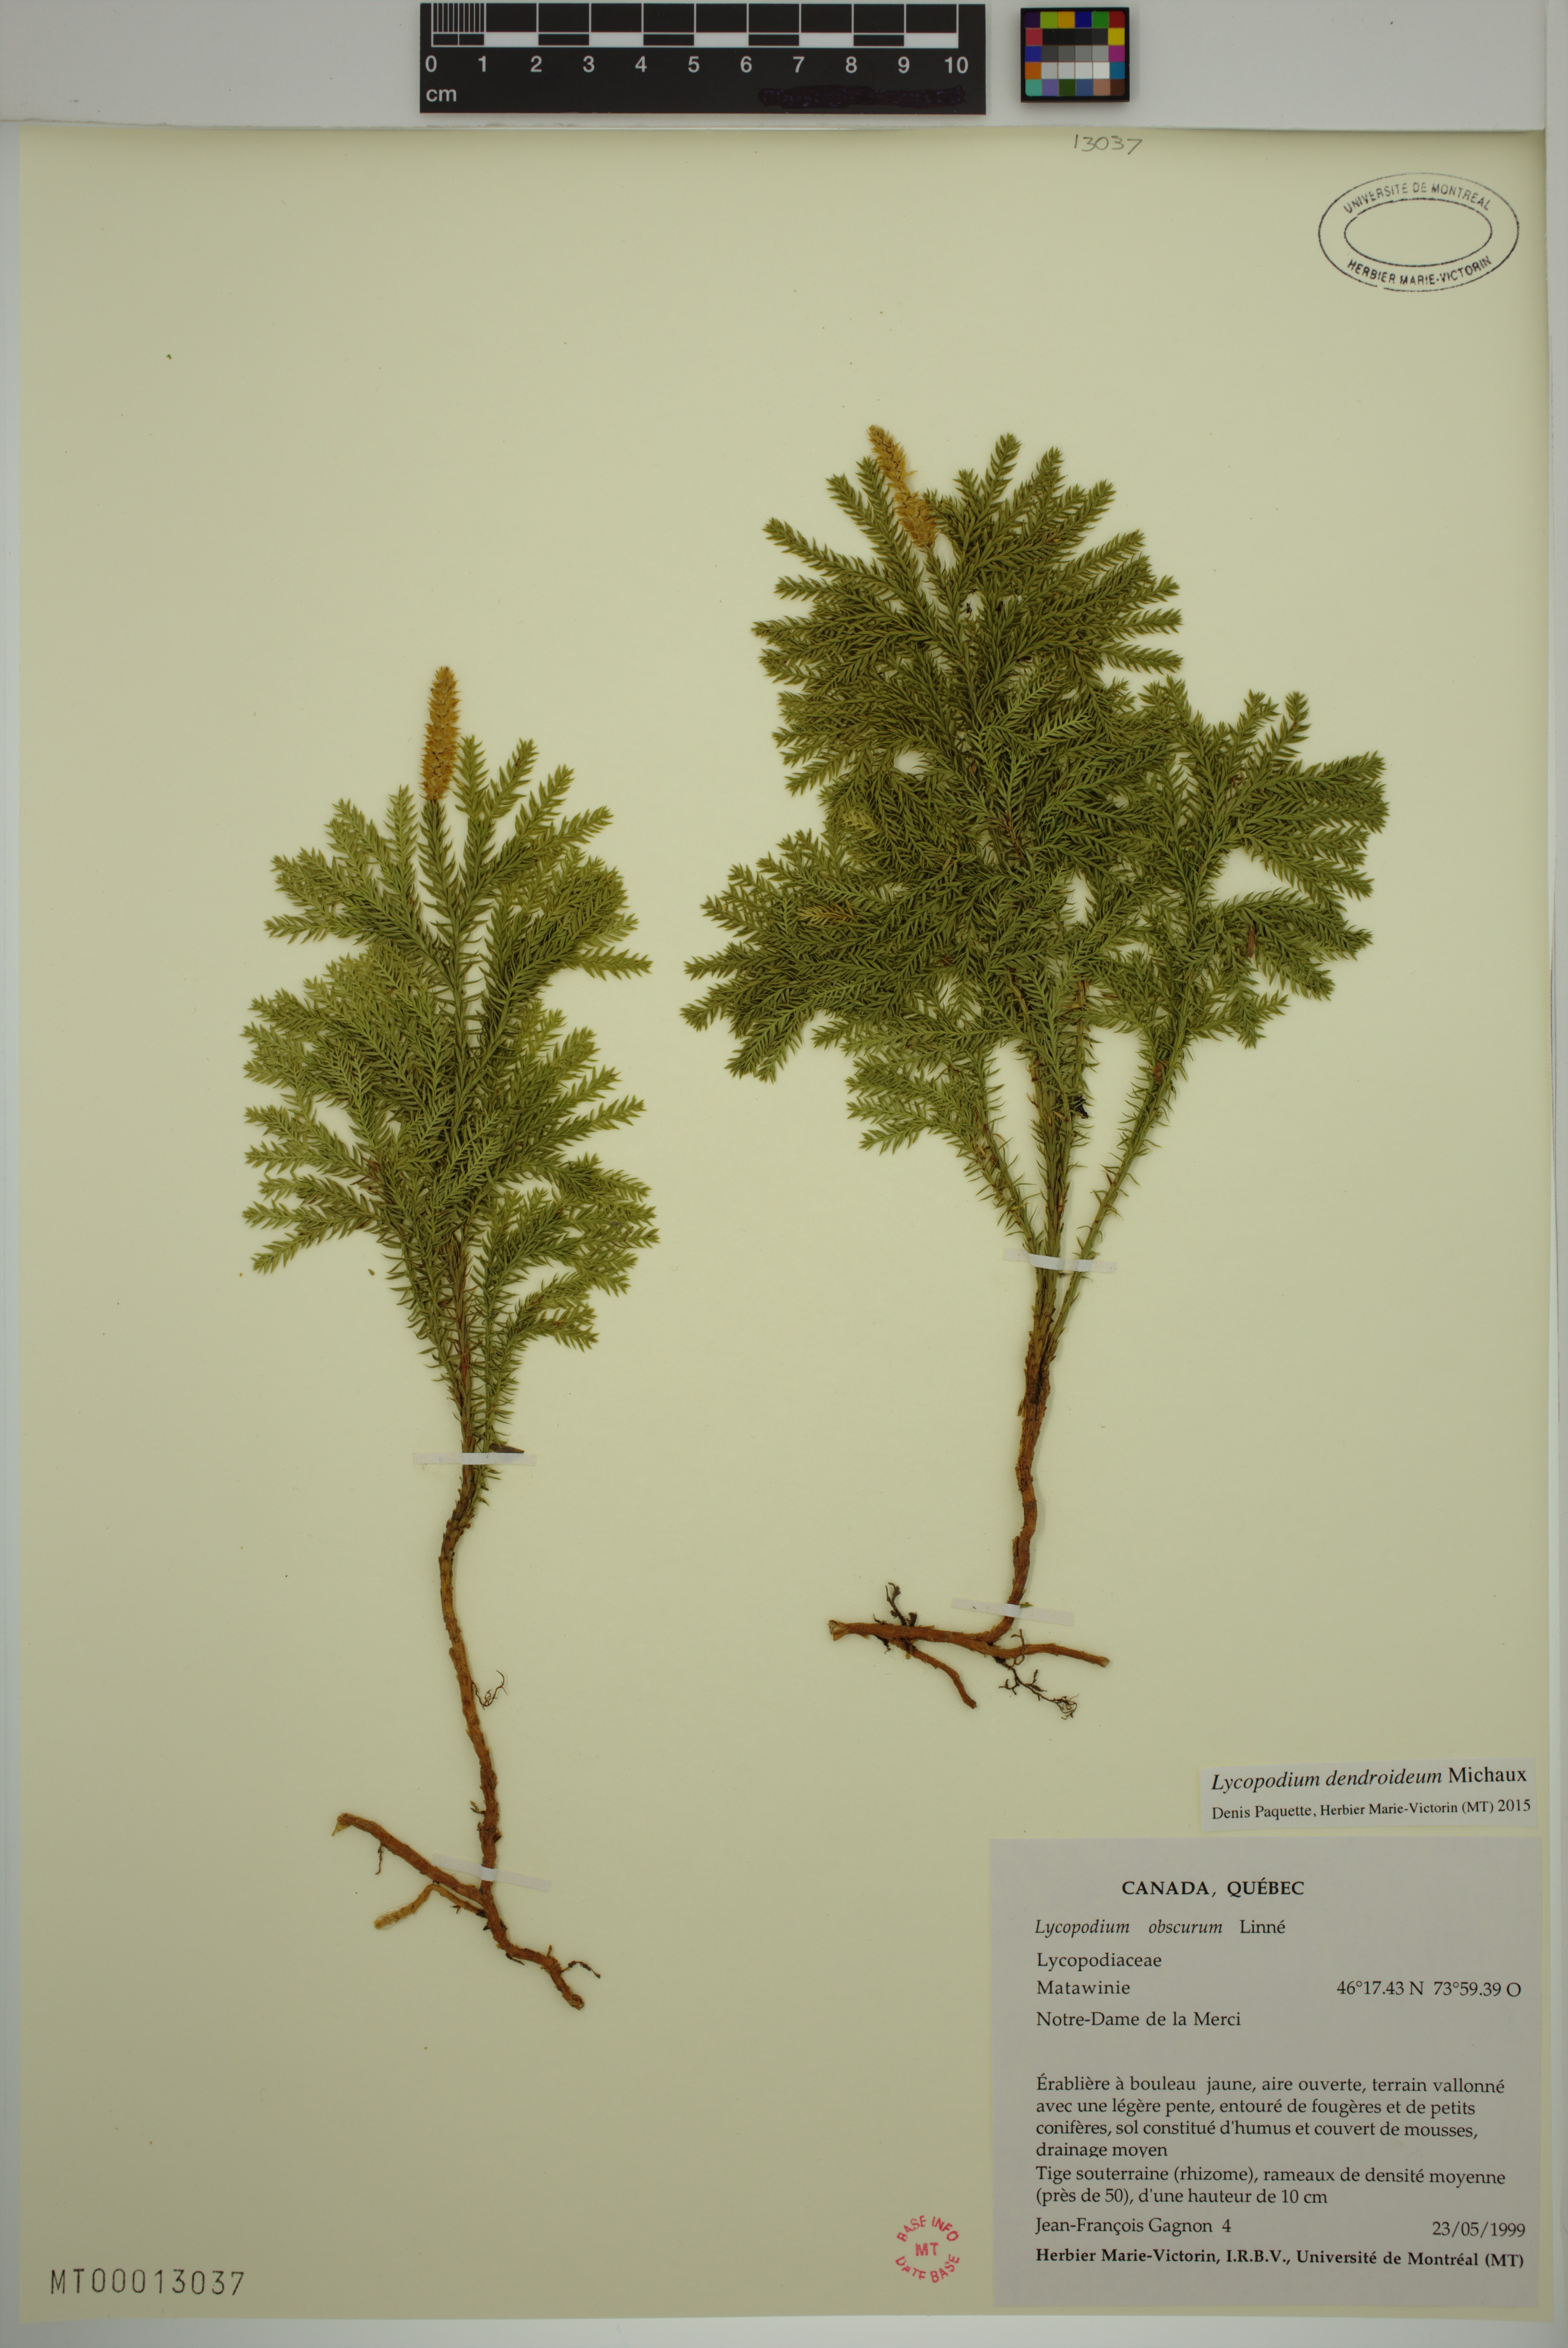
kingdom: Plantae
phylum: Tracheophyta
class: Lycopodiopsida
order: Lycopodiales
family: Lycopodiaceae
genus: Dendrolycopodium
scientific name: Dendrolycopodium dendroideum
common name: Northern tree-clubmoss
